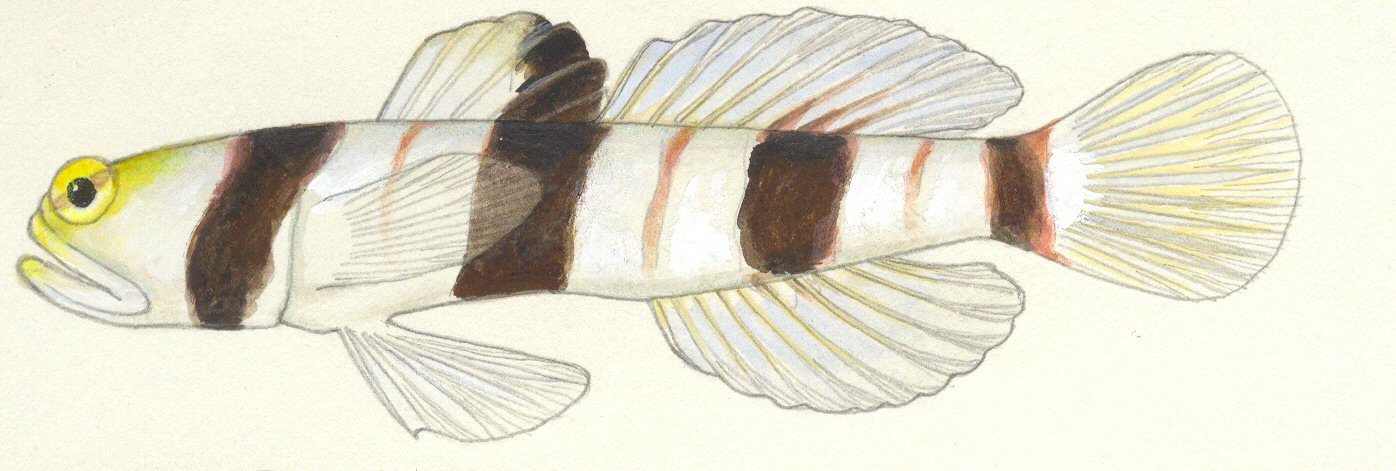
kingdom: Animalia
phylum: Chordata
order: Perciformes
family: Gobiidae
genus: Stonogobiops
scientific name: Stonogobiops nematodes
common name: Black-rayed shrimp-goby
